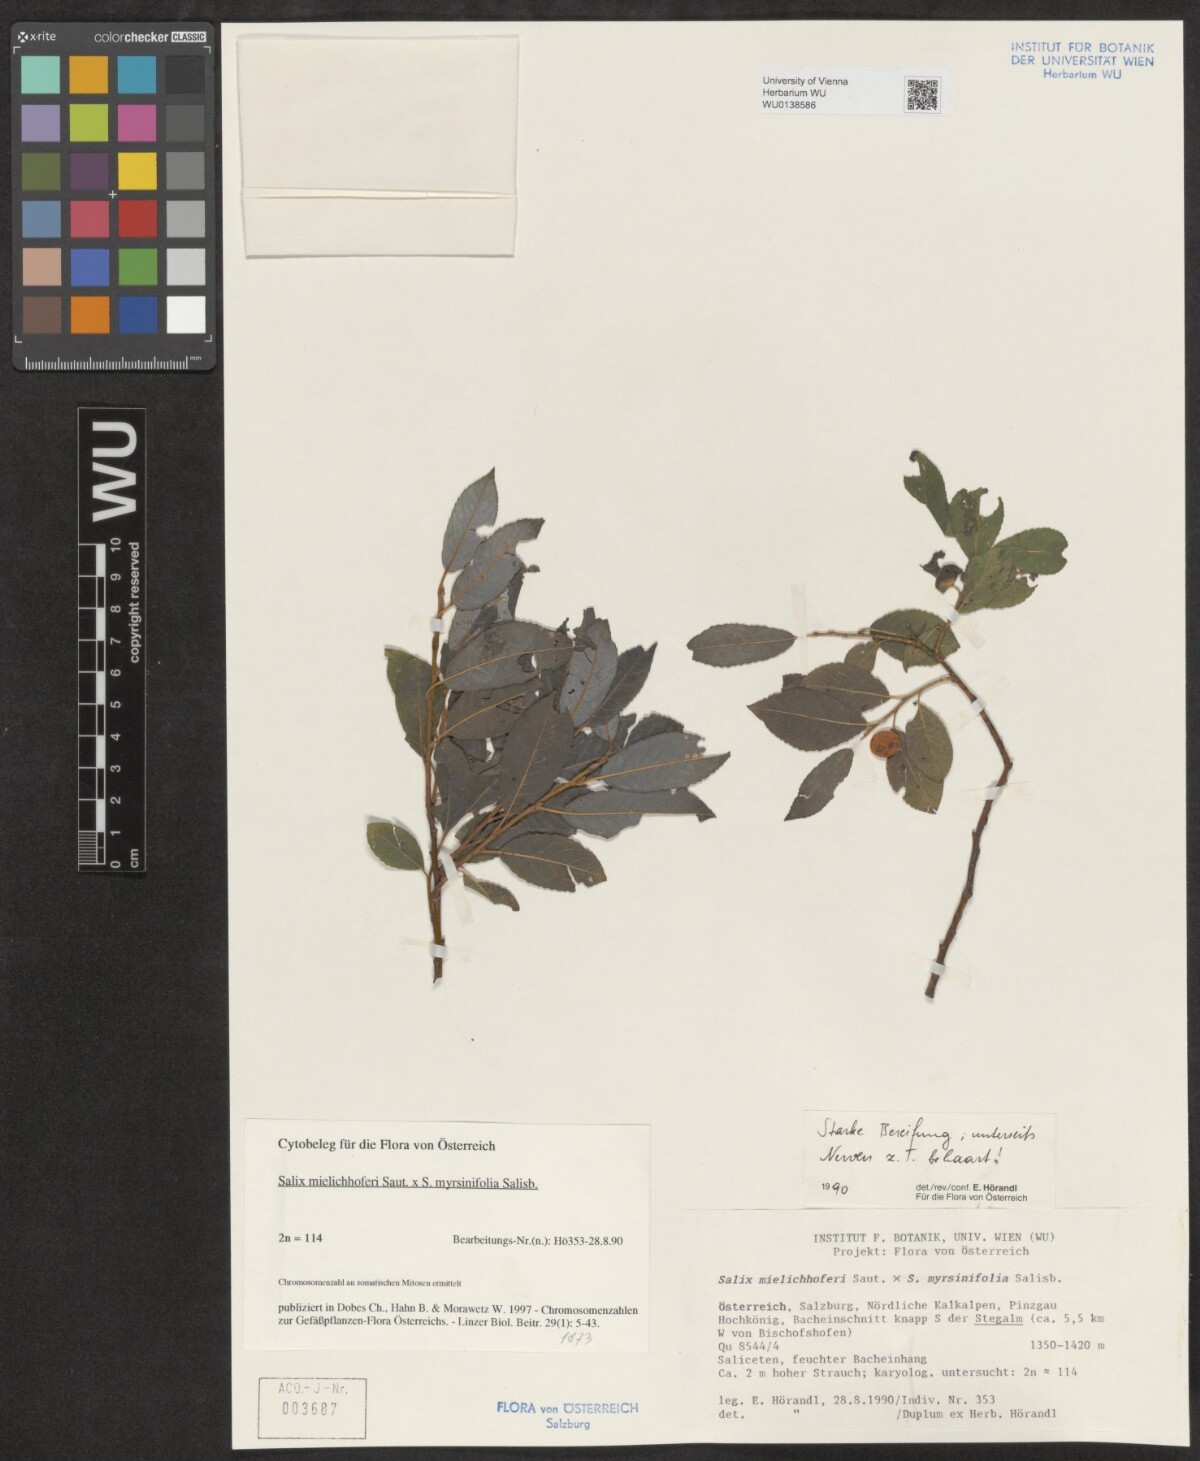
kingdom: Plantae
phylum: Tracheophyta
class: Magnoliopsida
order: Malpighiales
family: Salicaceae
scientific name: Salicaceae
